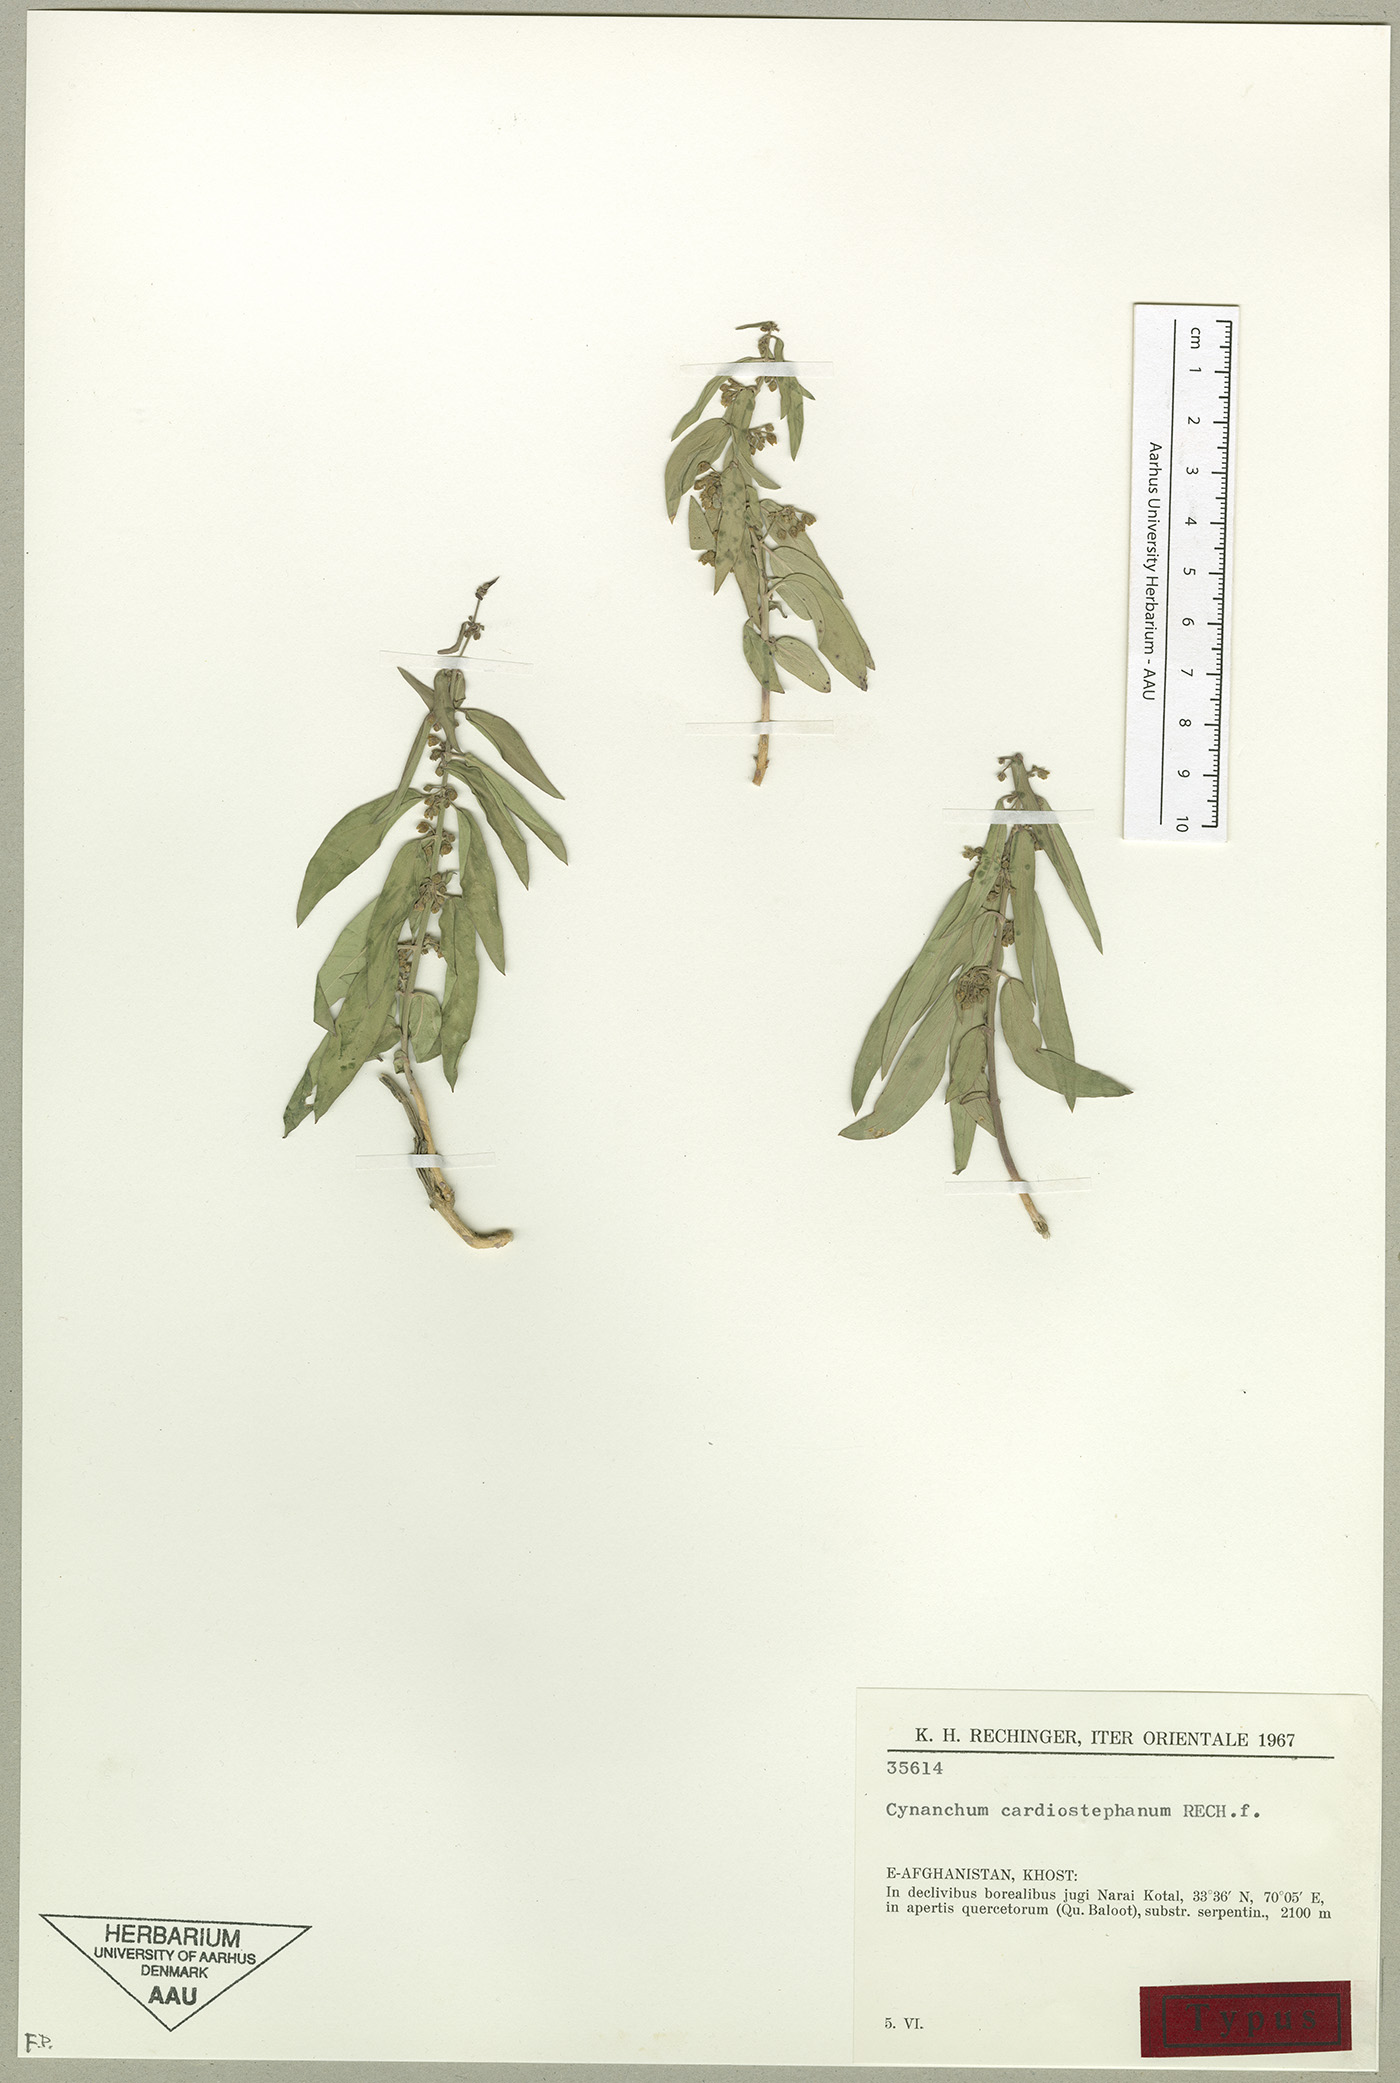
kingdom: Plantae
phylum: Tracheophyta
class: Magnoliopsida
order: Gentianales
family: Apocynaceae
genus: Vincetoxicum
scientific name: Vincetoxicum cardiostephanum
